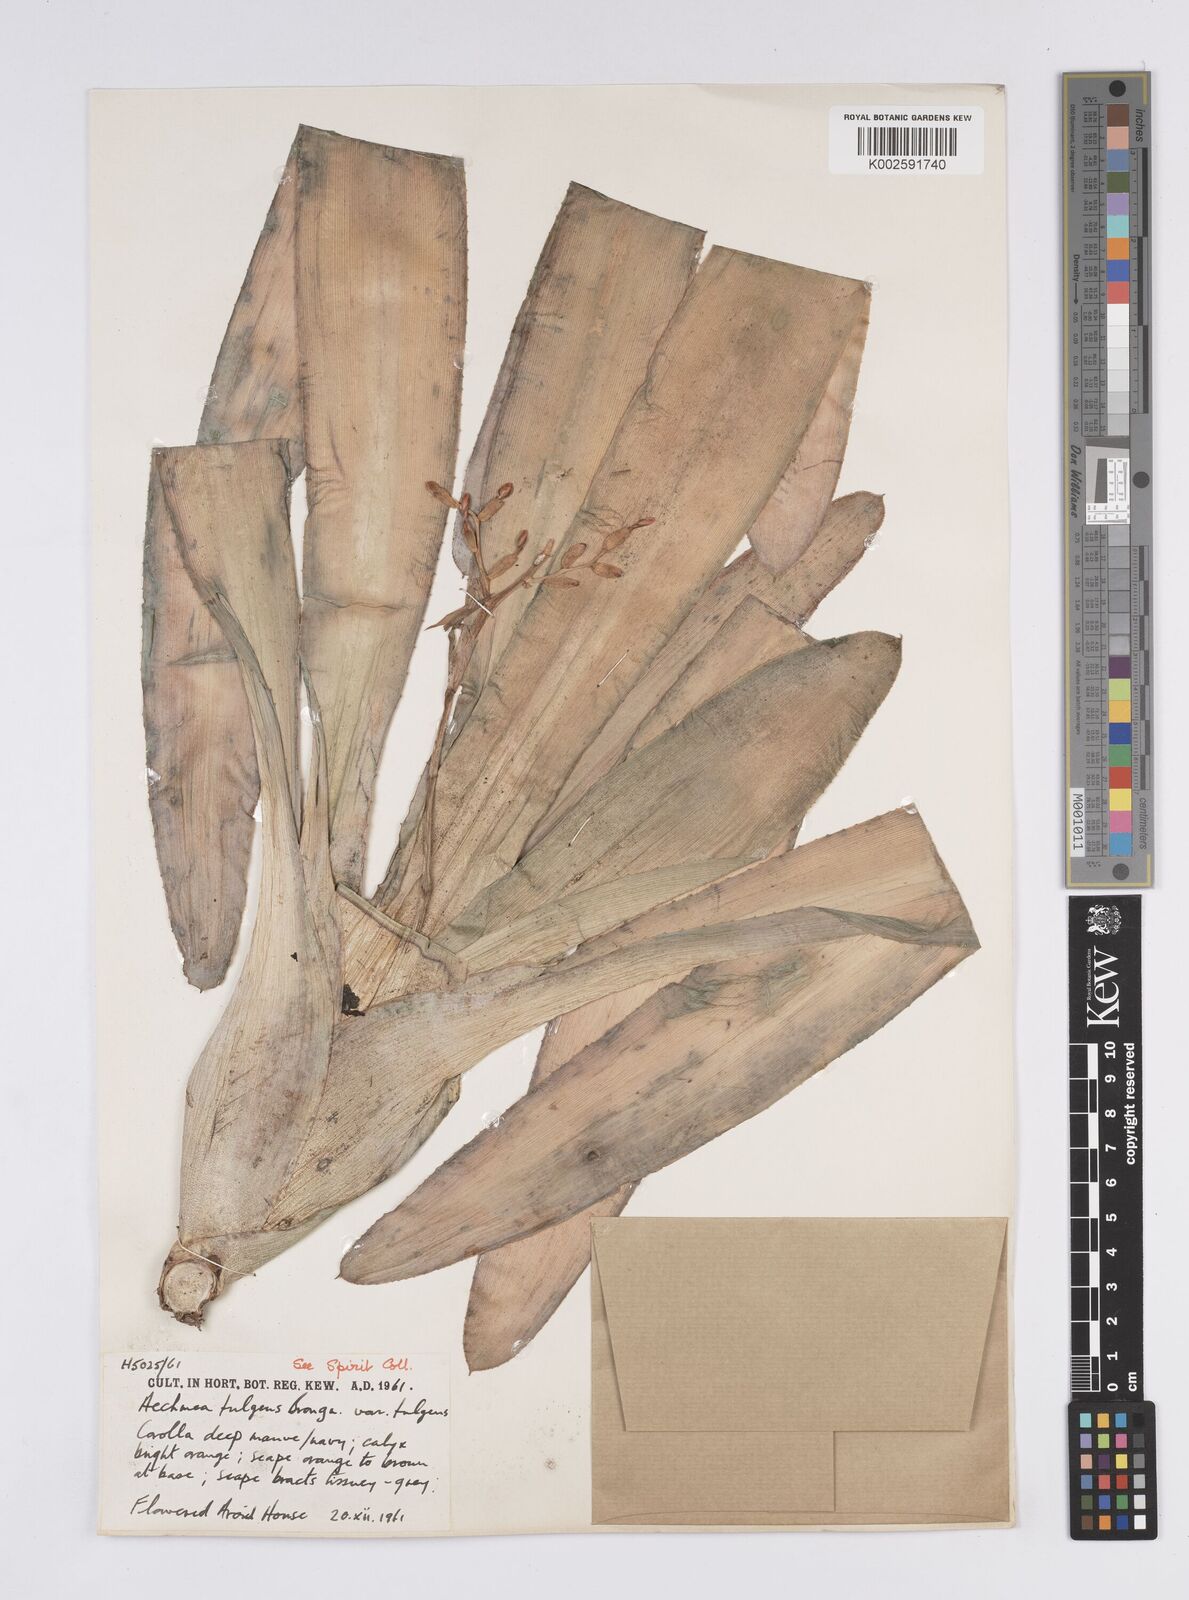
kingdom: Plantae
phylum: Tracheophyta
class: Liliopsida
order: Poales
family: Bromeliaceae
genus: Aechmea
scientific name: Aechmea fulgens
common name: Coralberry
